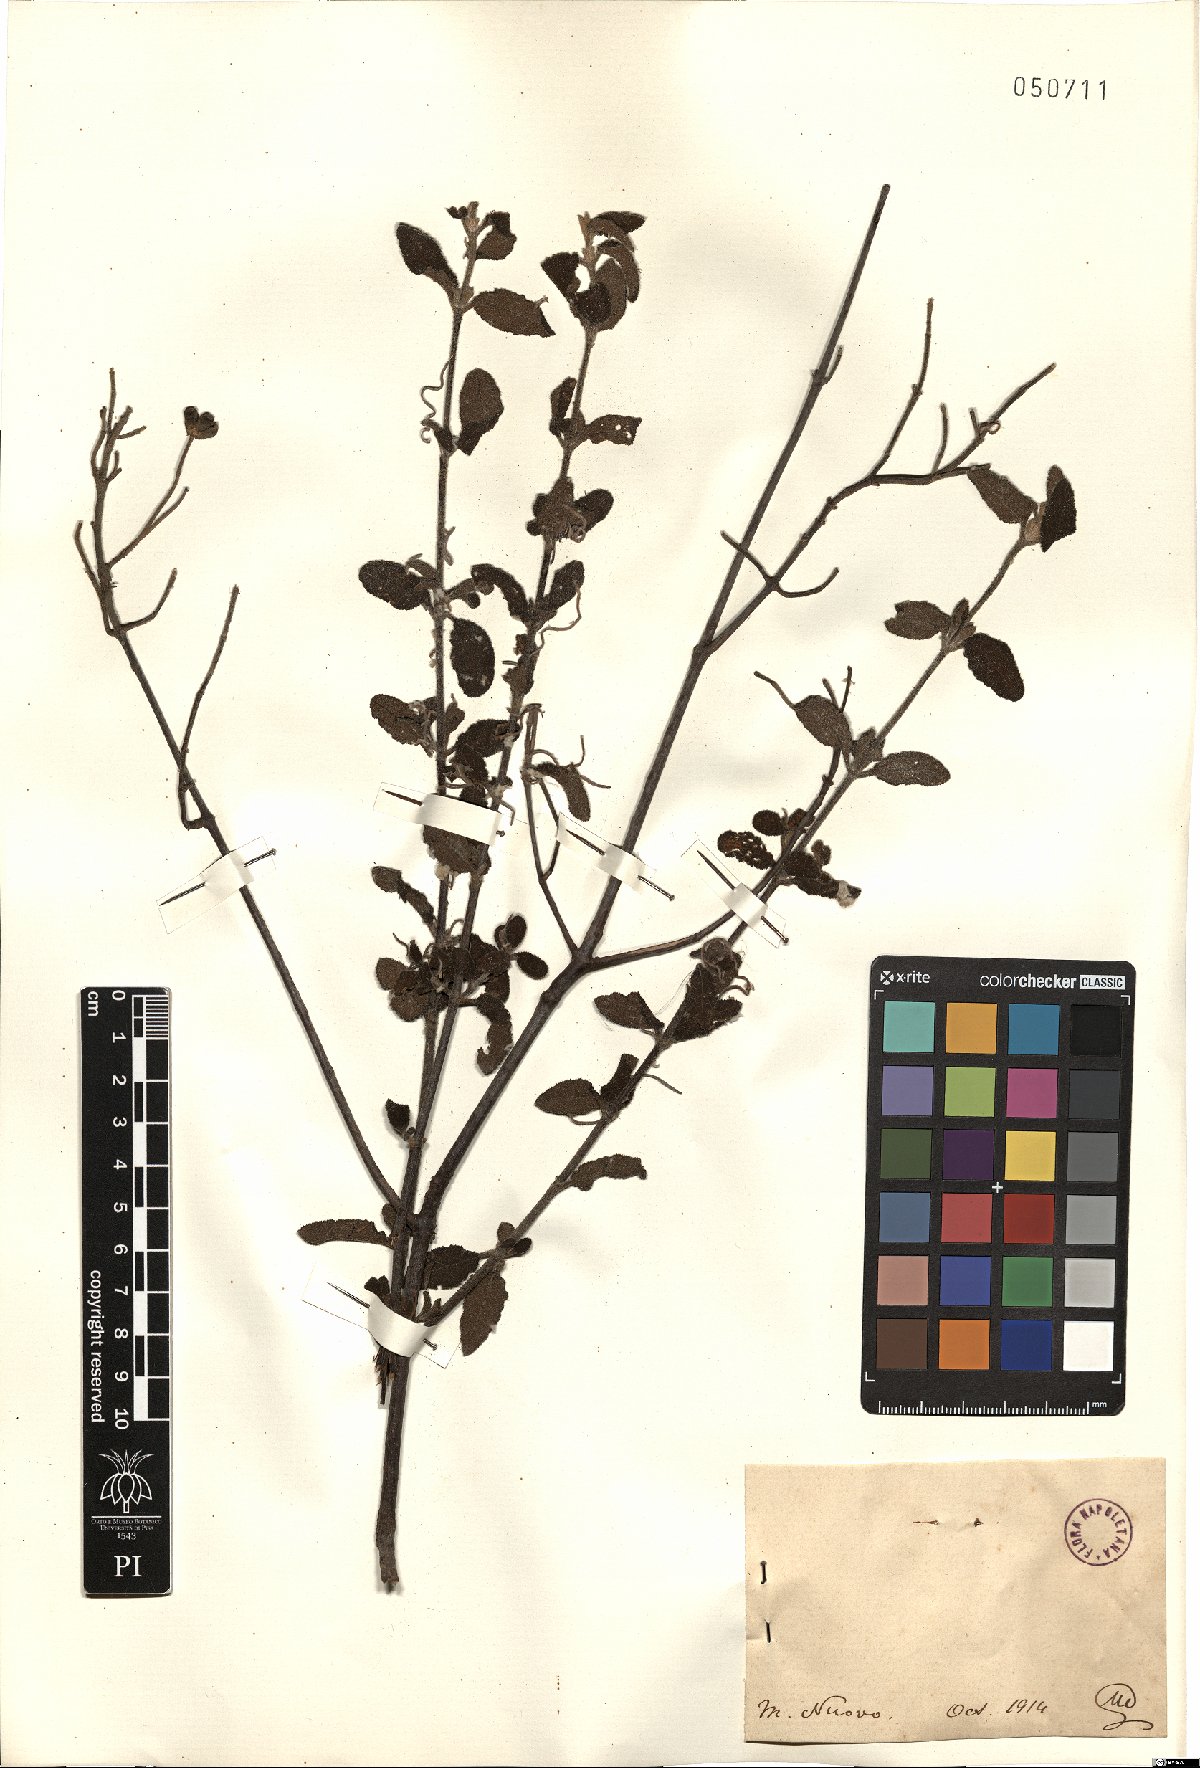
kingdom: Plantae
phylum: Tracheophyta
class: Magnoliopsida
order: Malvales
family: Cistaceae
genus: Cistus
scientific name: Cistus
